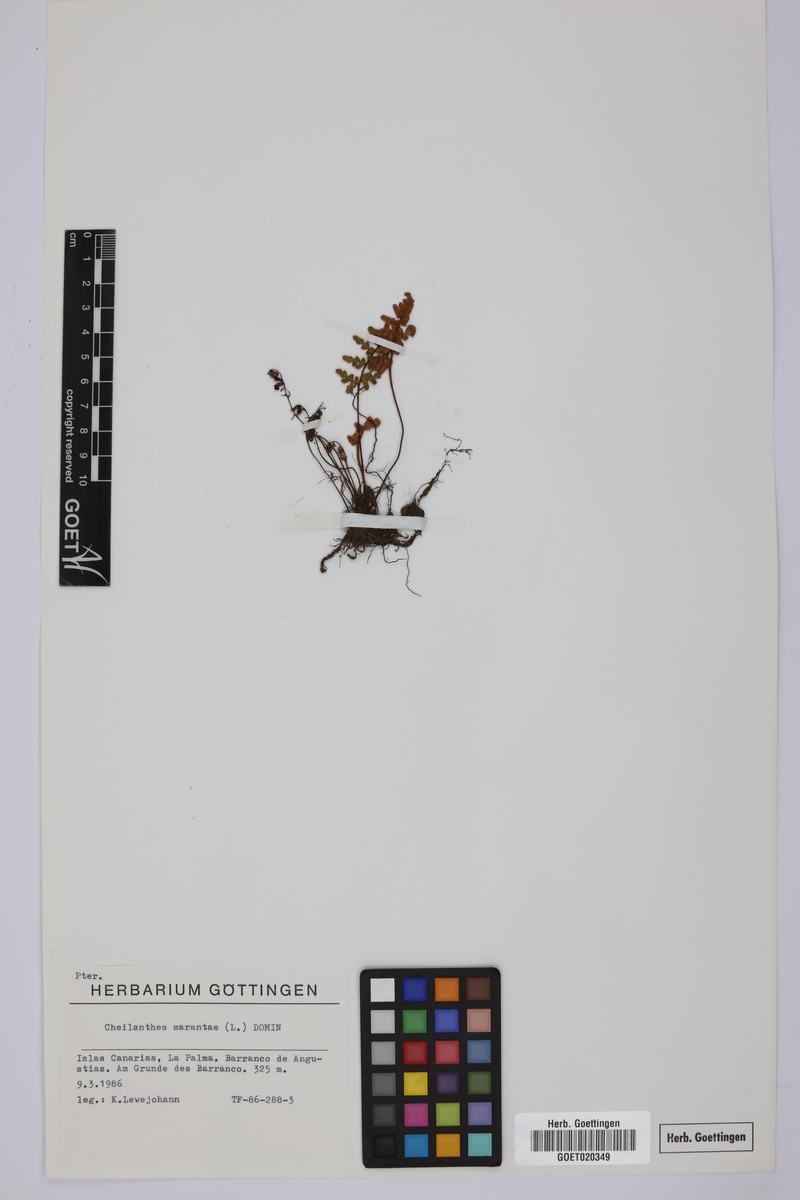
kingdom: Plantae
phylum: Tracheophyta
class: Polypodiopsida
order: Polypodiales
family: Pteridaceae
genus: Paragymnopteris
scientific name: Paragymnopteris marantae
